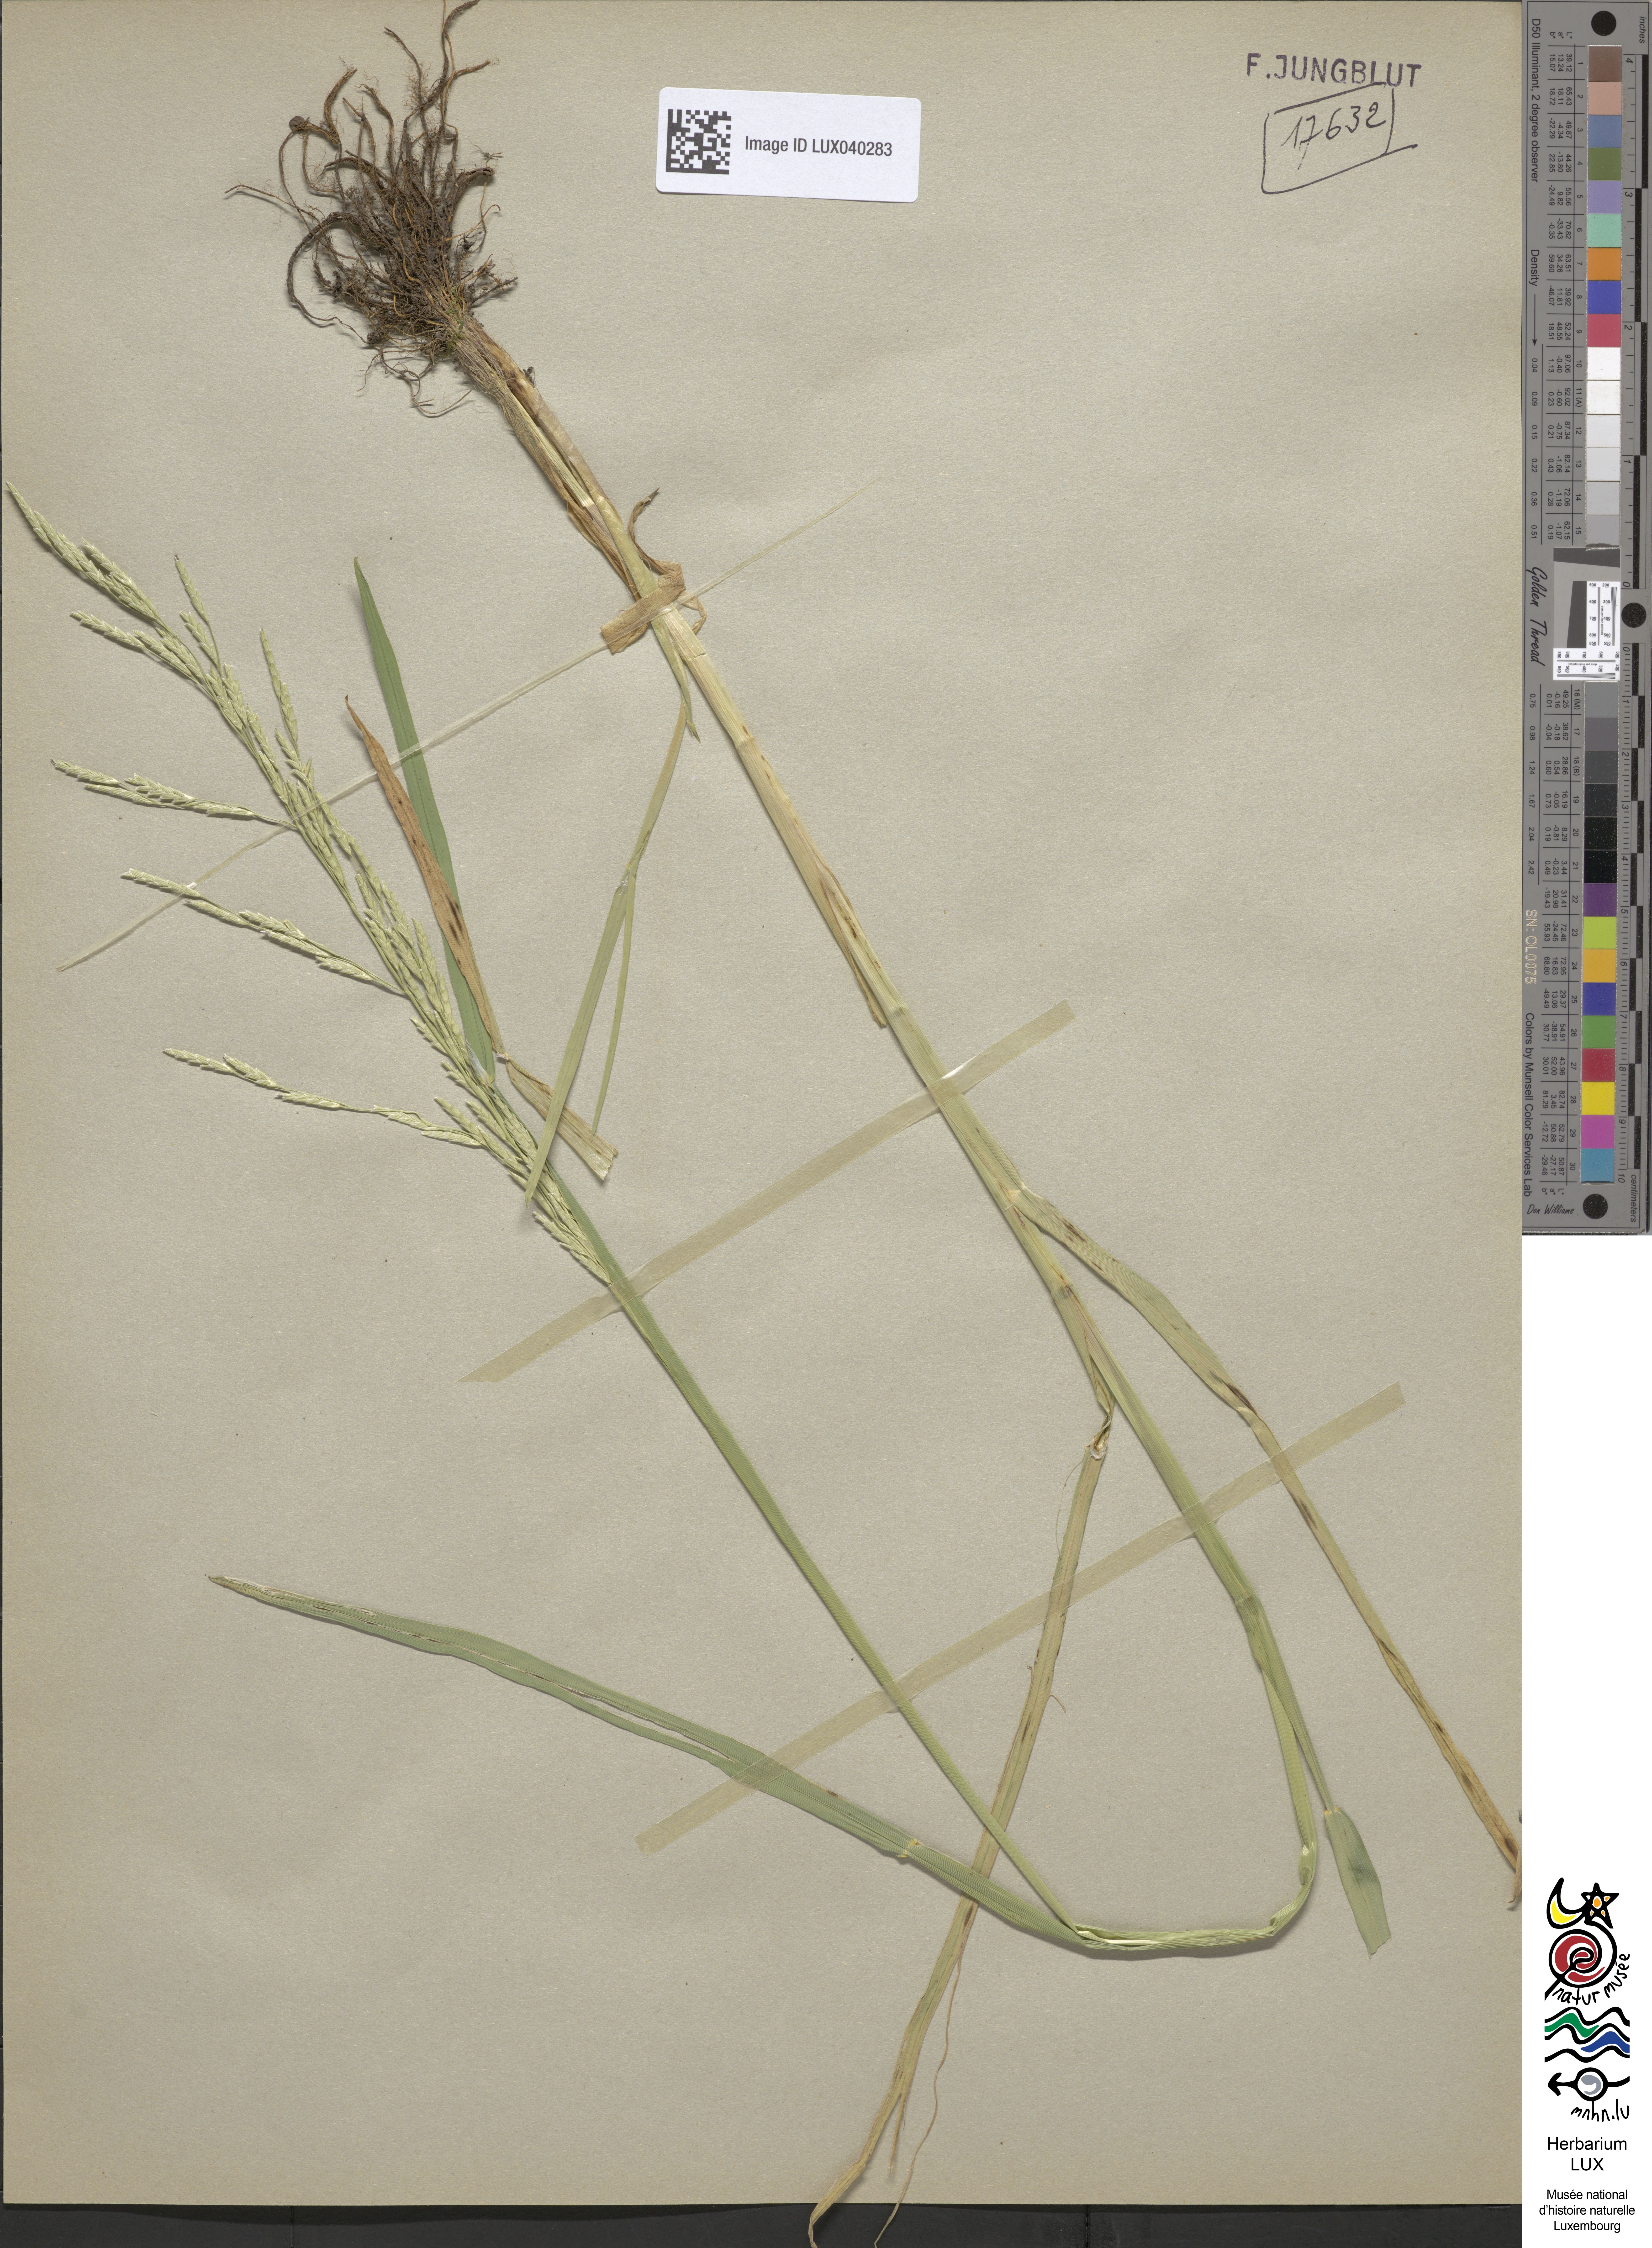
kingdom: Plantae
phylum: Tracheophyta
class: Liliopsida
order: Poales
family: Poaceae
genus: Glyceria
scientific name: Glyceria notata
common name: Plicate sweet-grass
